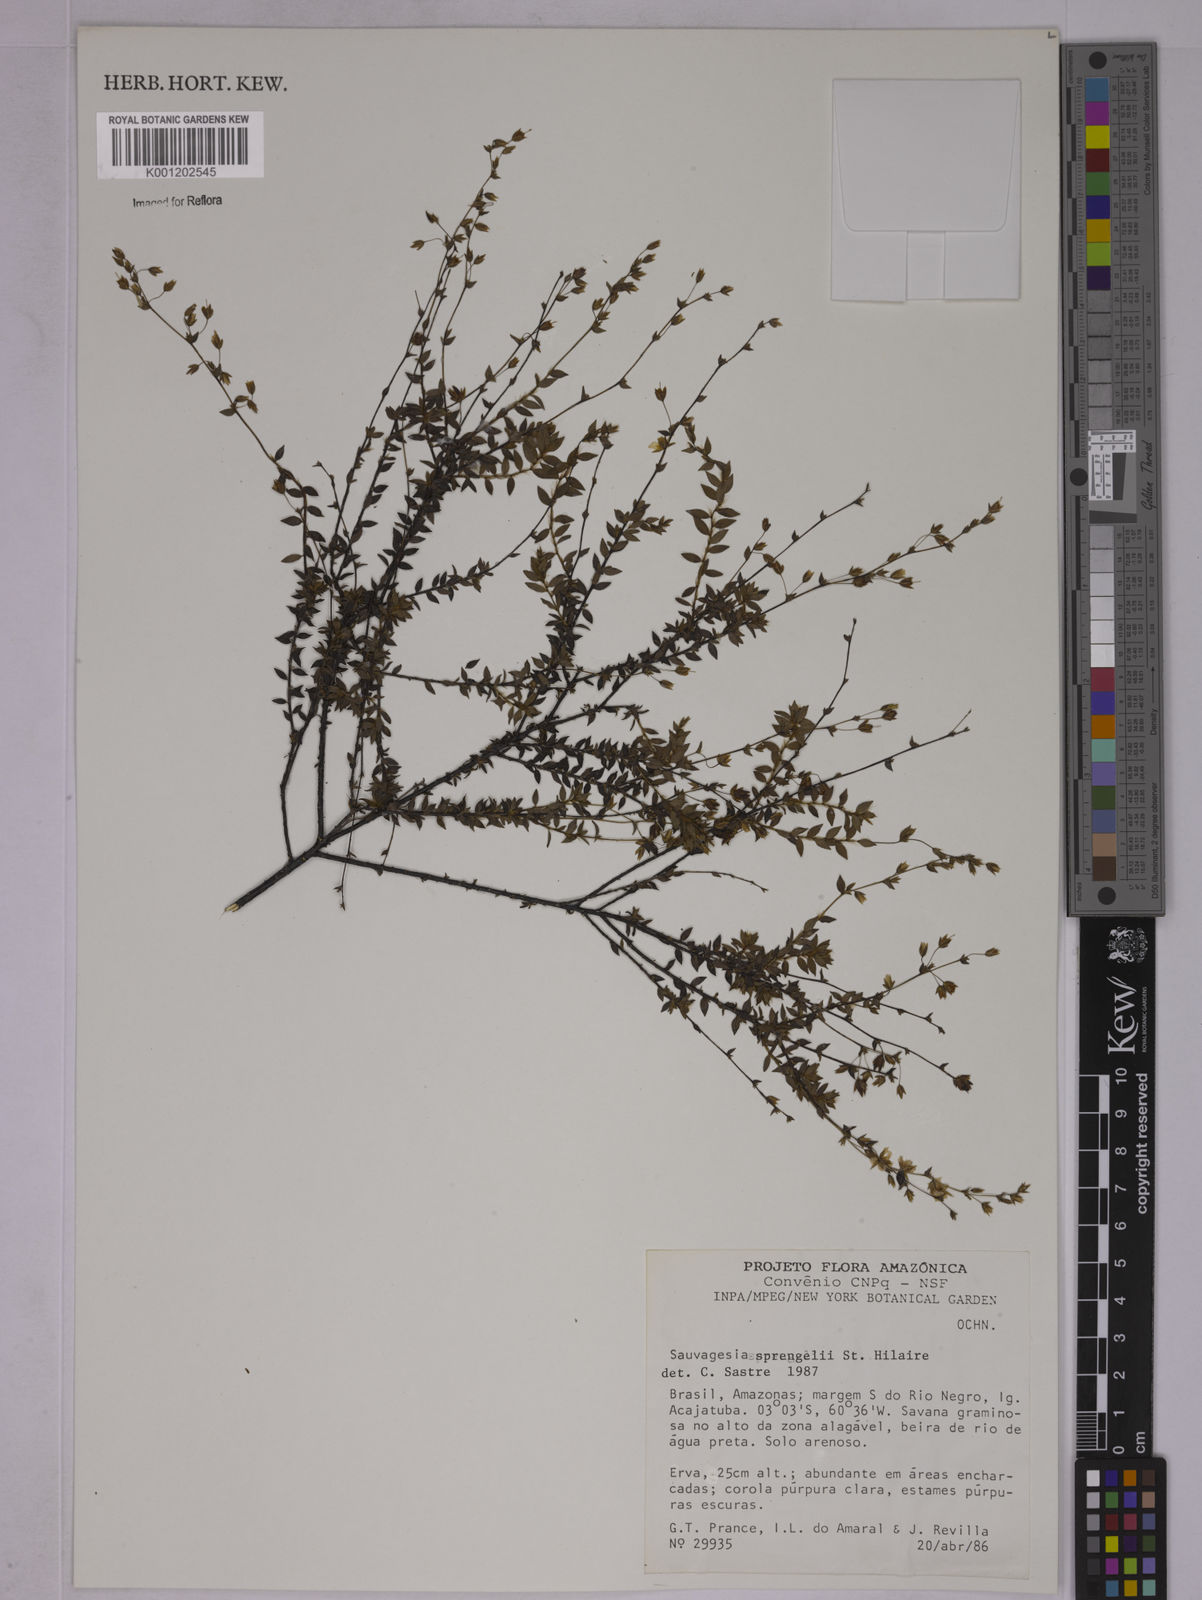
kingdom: Plantae
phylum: Tracheophyta
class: Magnoliopsida
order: Malpighiales
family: Ochnaceae
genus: Sauvagesia
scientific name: Sauvagesia sprengelii
